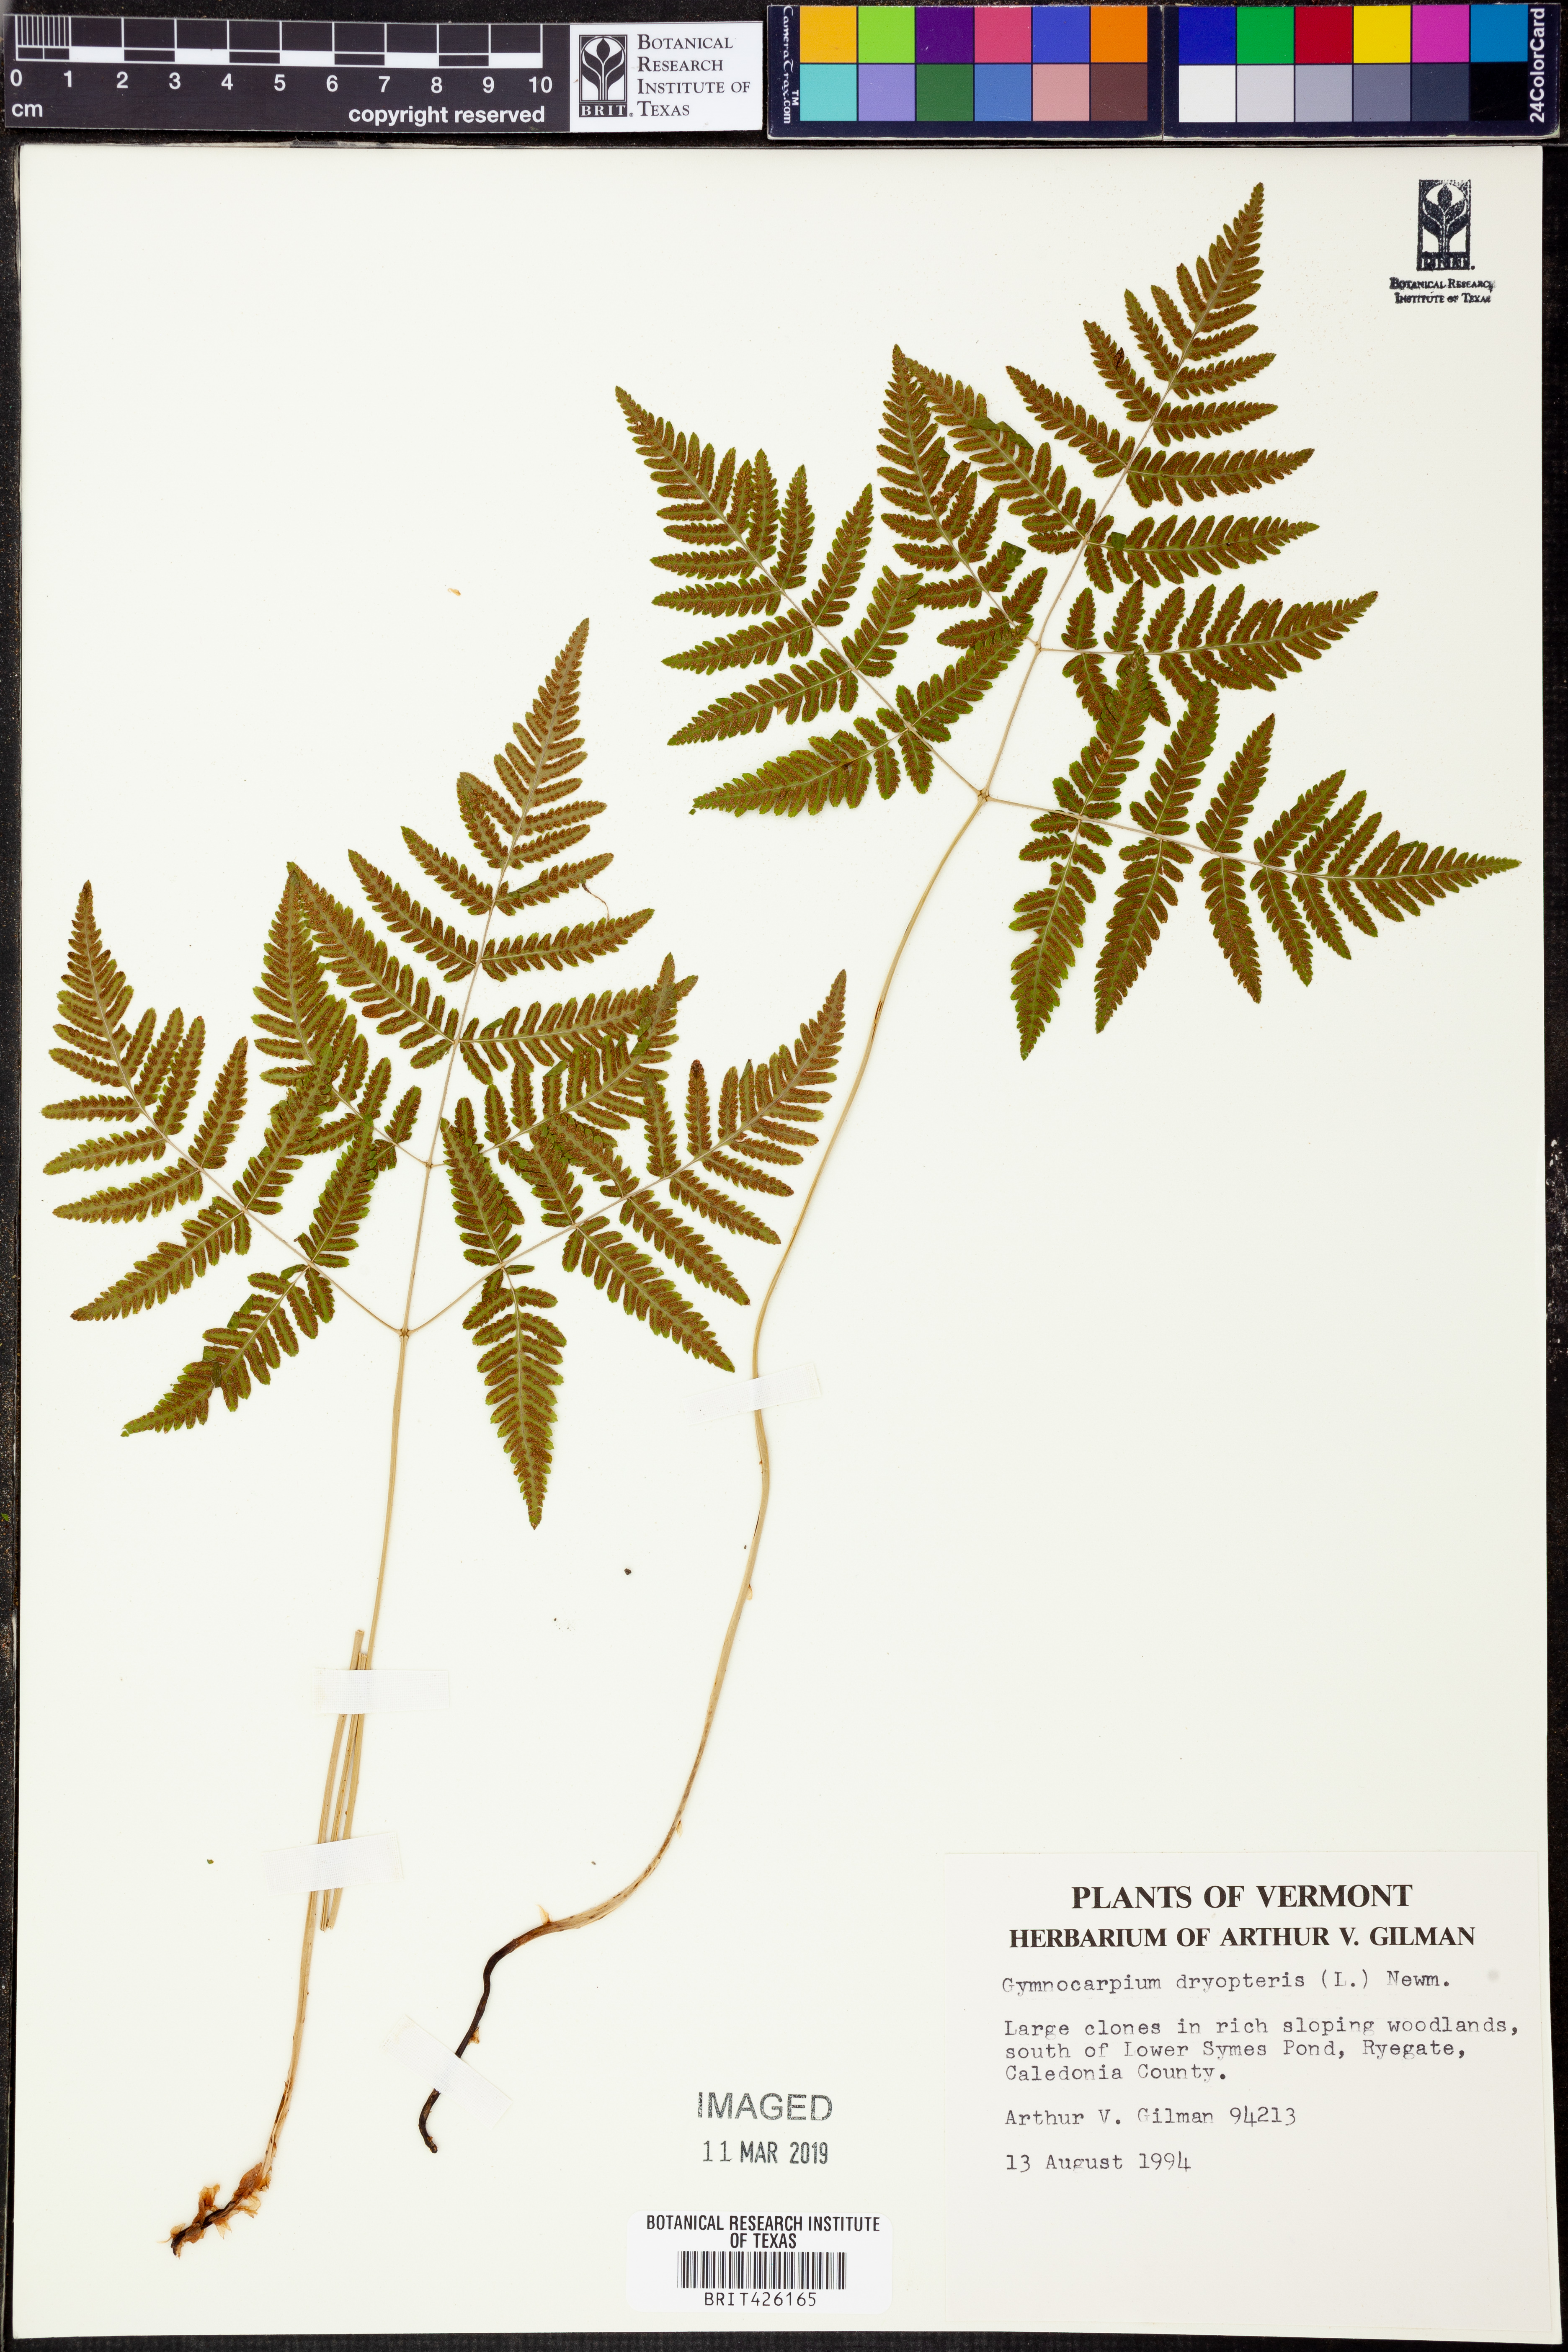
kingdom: Plantae
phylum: Tracheophyta
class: Polypodiopsida
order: Polypodiales
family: Cystopteridaceae
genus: Gymnocarpium
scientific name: Gymnocarpium dryopteris
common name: Oak fern
